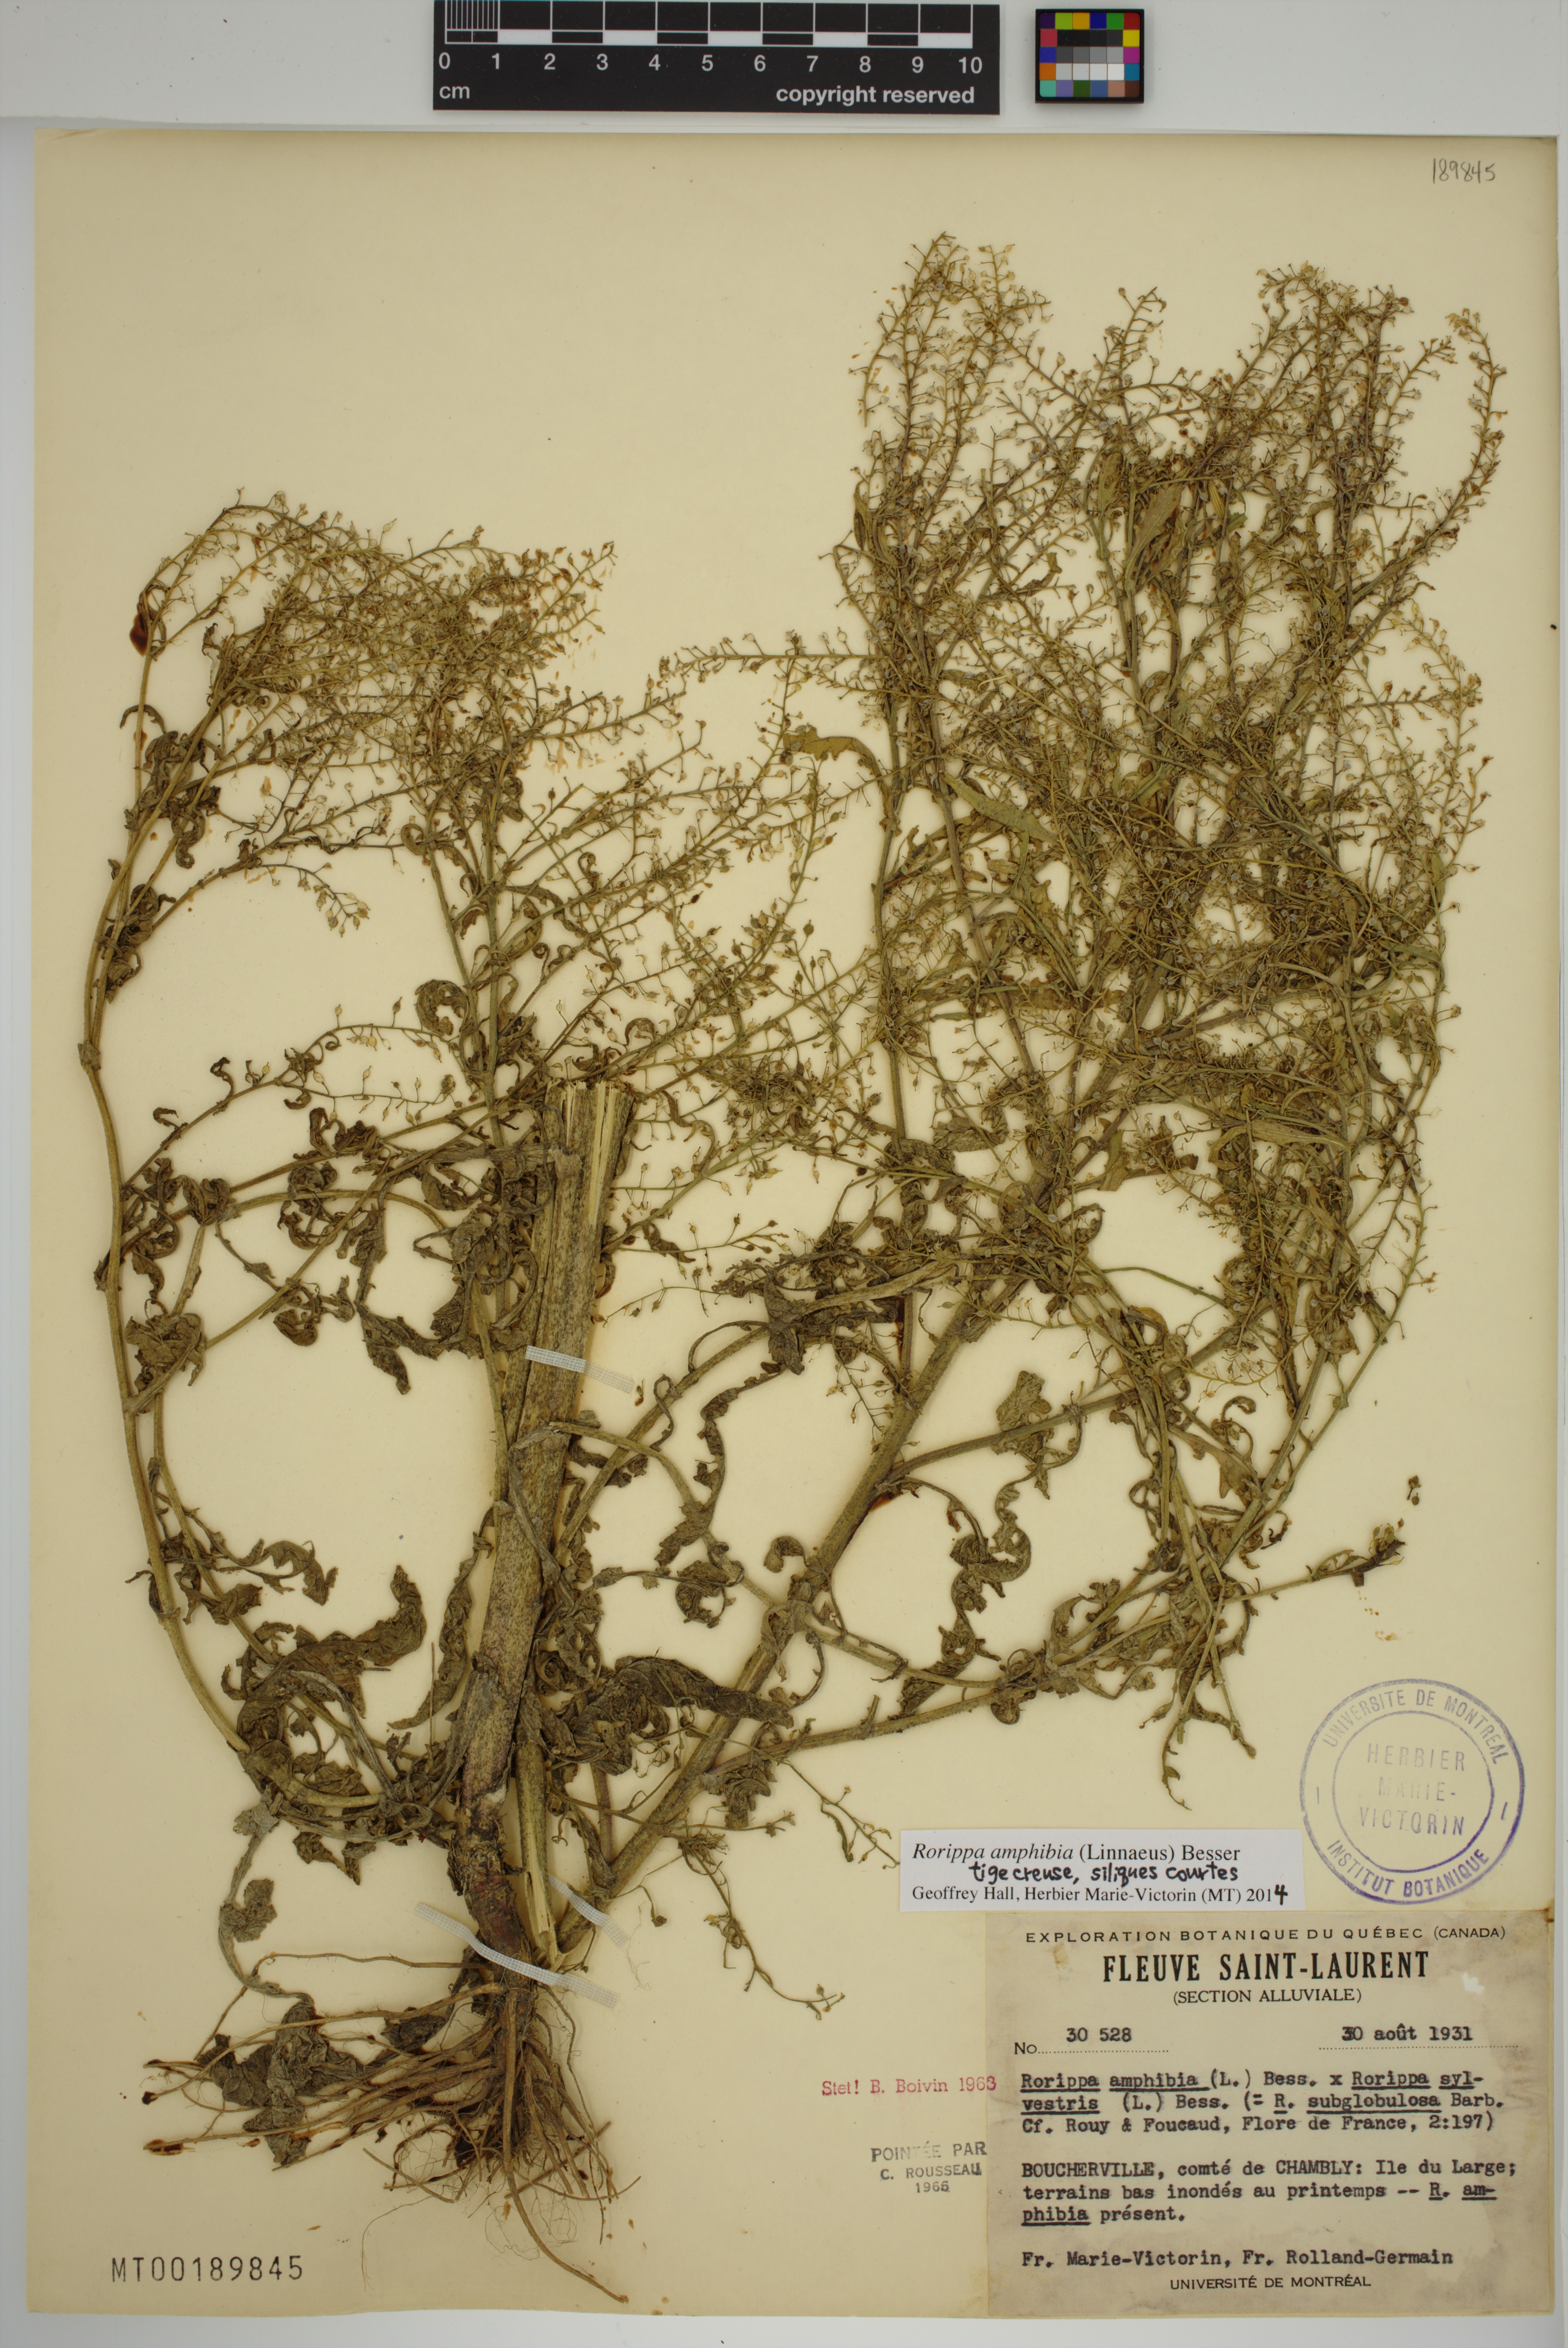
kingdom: Plantae
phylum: Tracheophyta
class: Magnoliopsida
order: Brassicales
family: Brassicaceae
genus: Rorippa
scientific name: Rorippa amphibia
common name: Great yellow-cress
